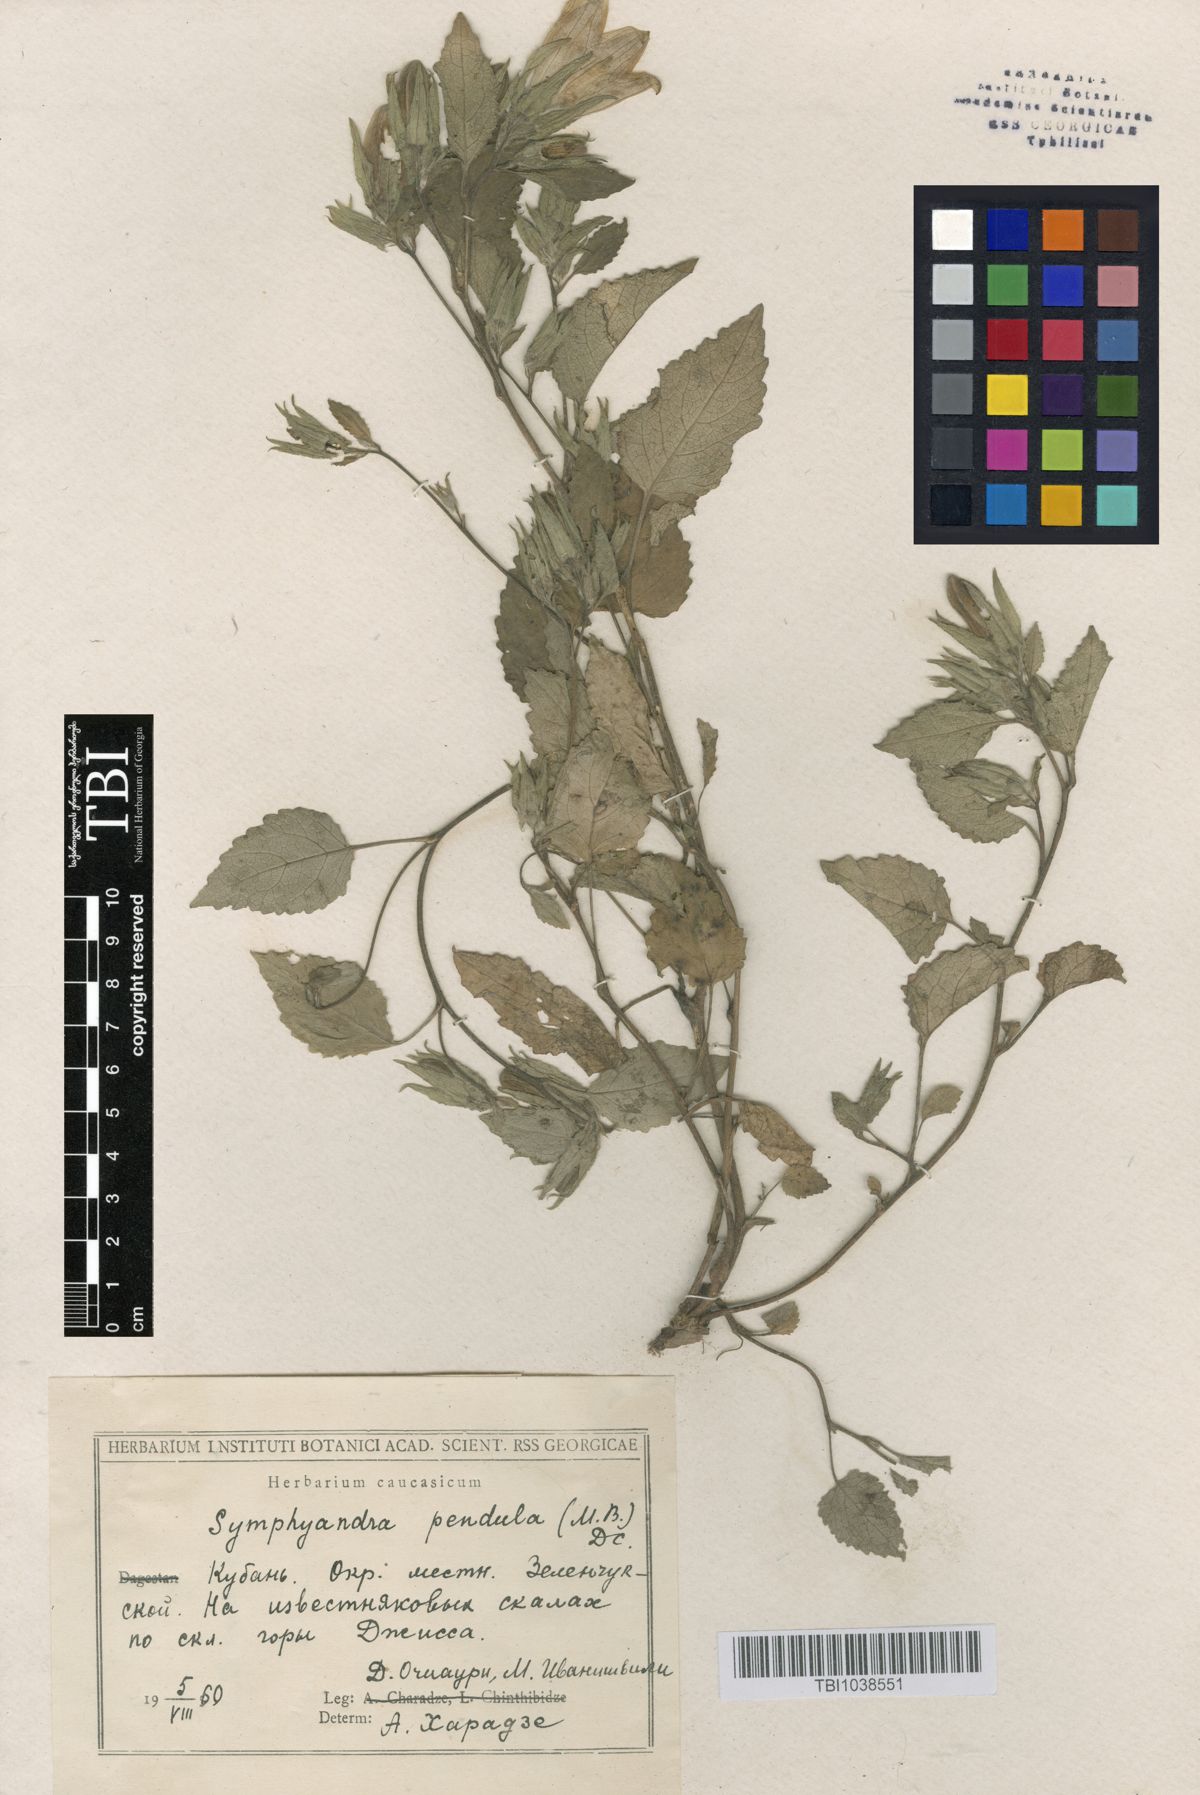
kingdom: Plantae
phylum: Tracheophyta
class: Magnoliopsida
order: Asterales
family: Campanulaceae
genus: Campanula
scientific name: Campanula pendula
